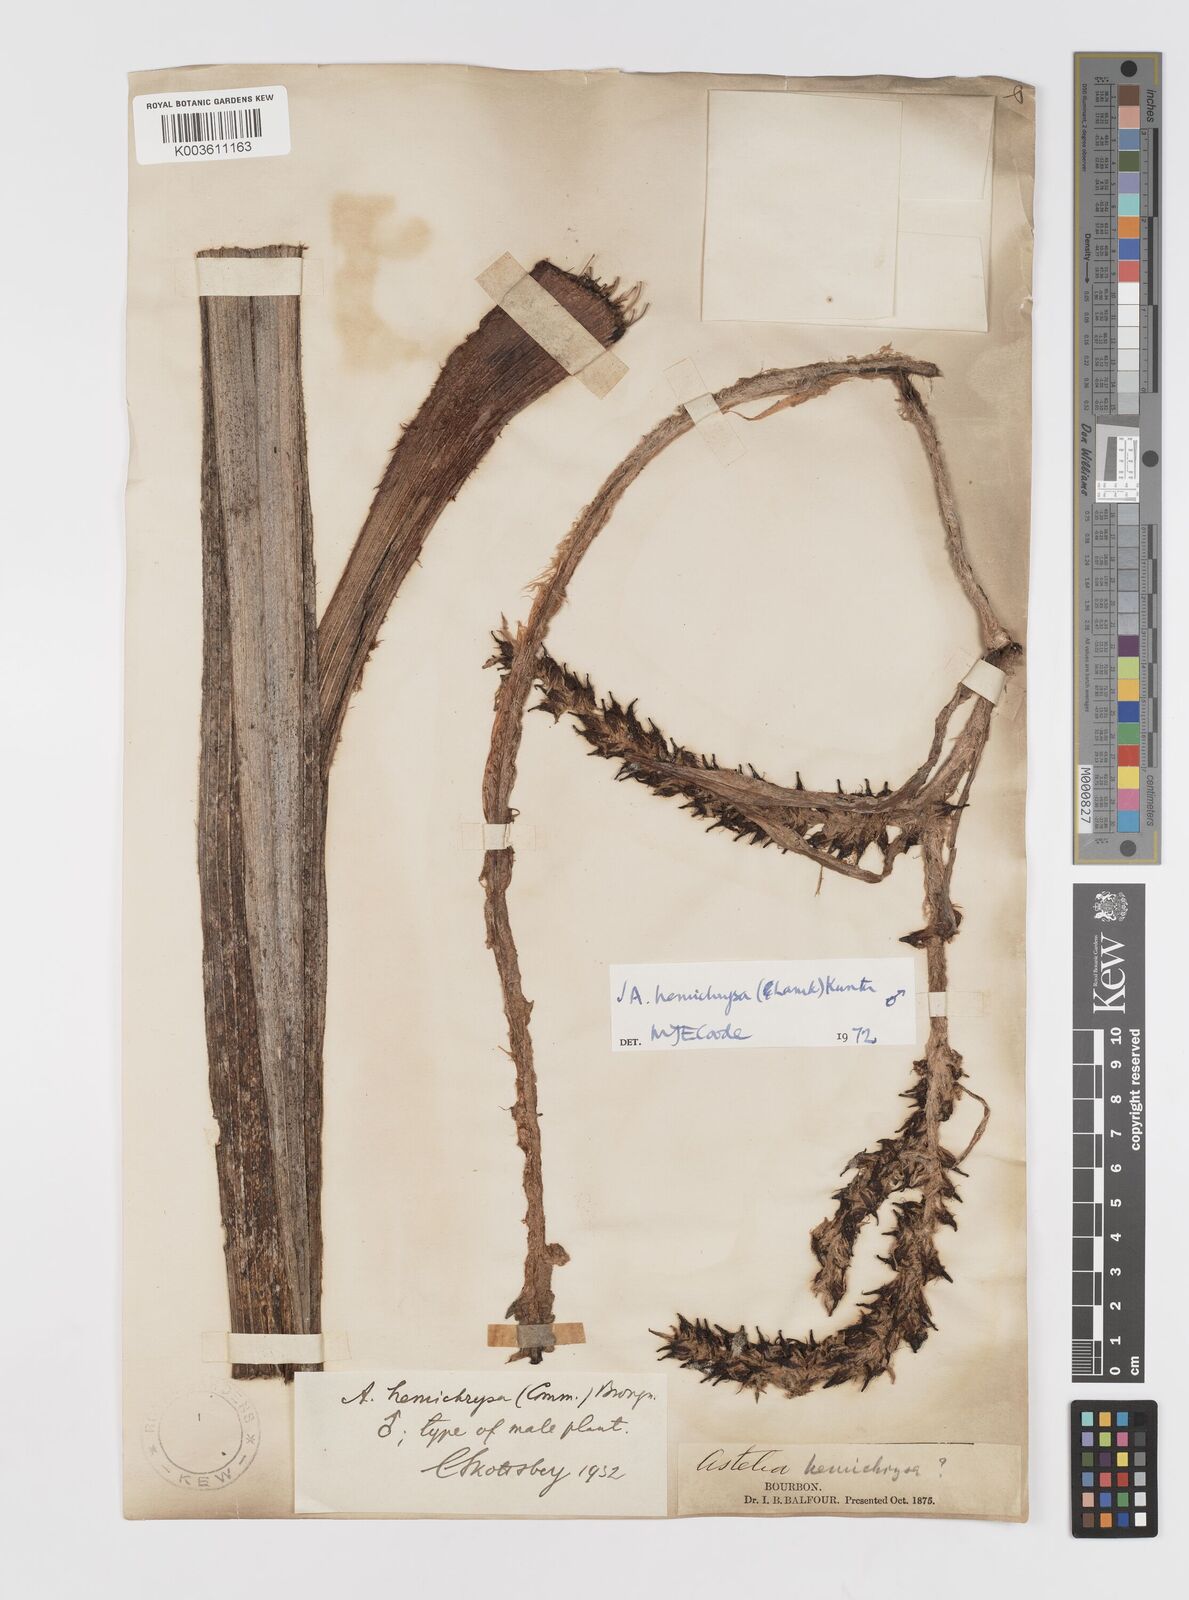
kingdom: Plantae
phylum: Tracheophyta
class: Liliopsida
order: Asparagales
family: Asteliaceae
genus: Astelia
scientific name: Astelia hemichrysa
